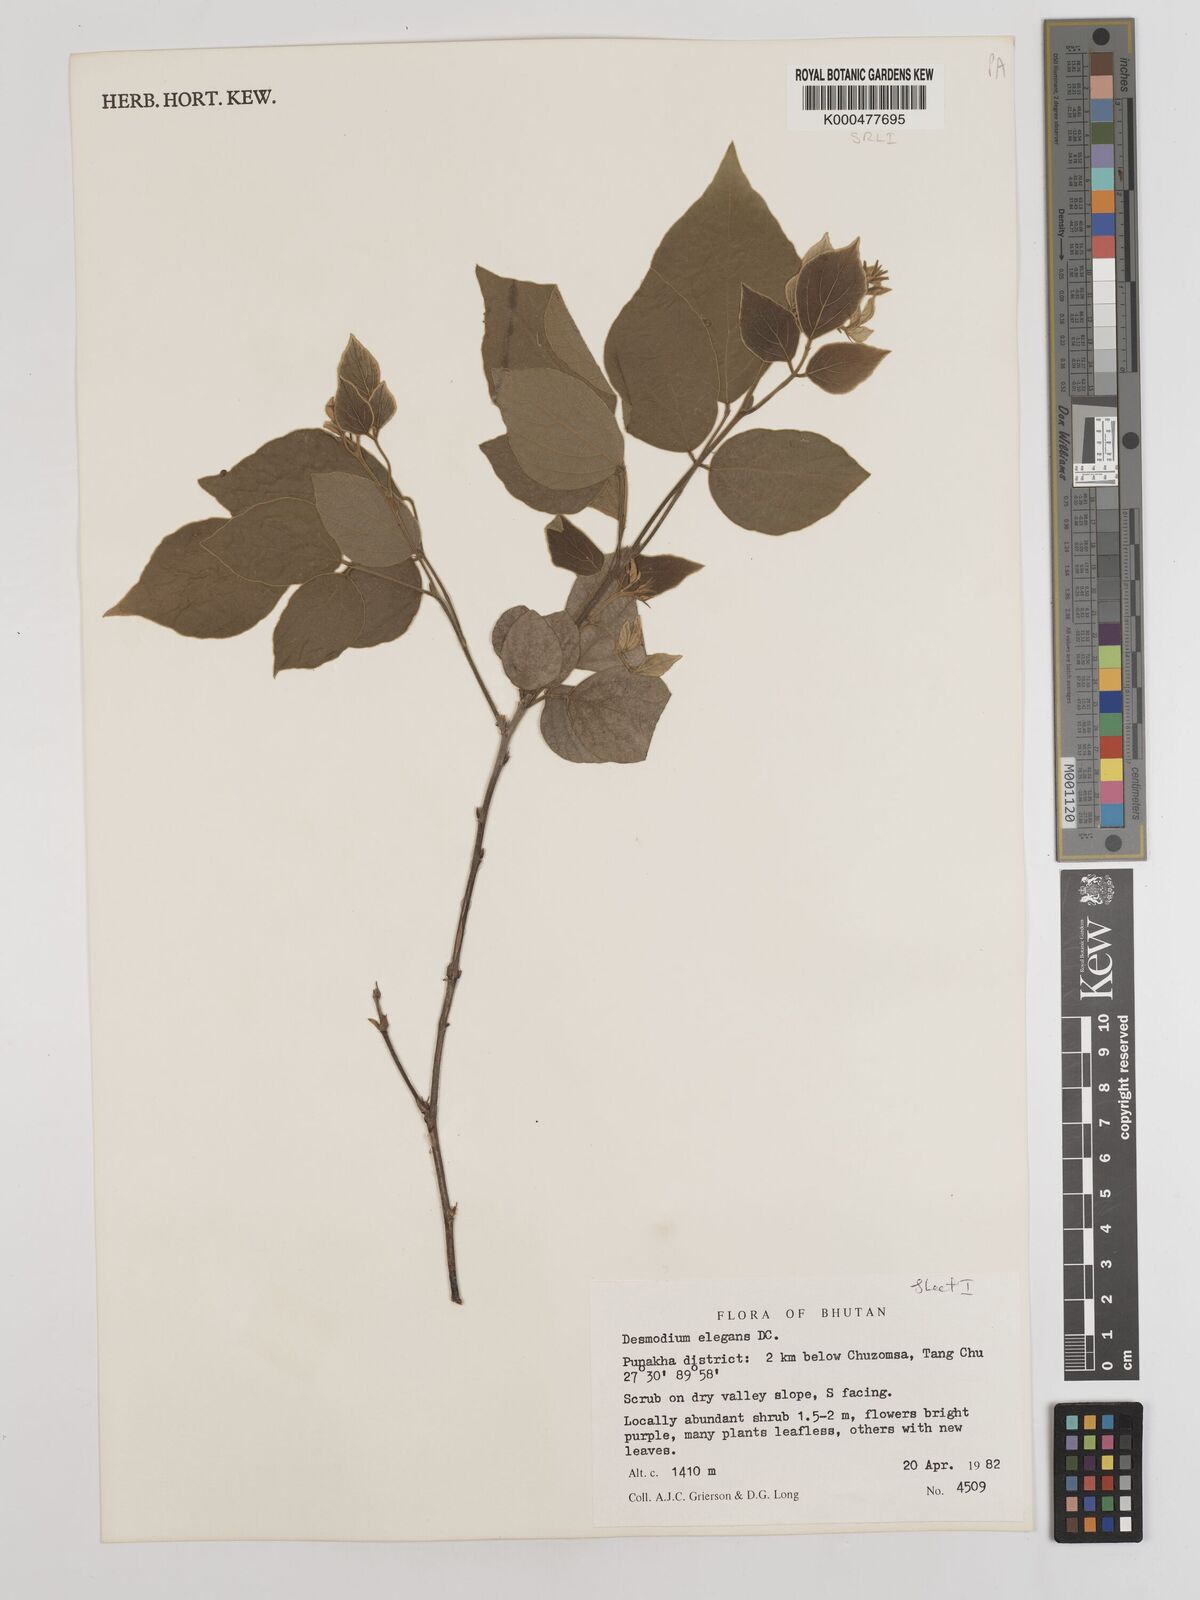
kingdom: Plantae
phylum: Tracheophyta
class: Magnoliopsida
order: Fabales
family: Fabaceae
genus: Sunhangia
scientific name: Sunhangia elegans
